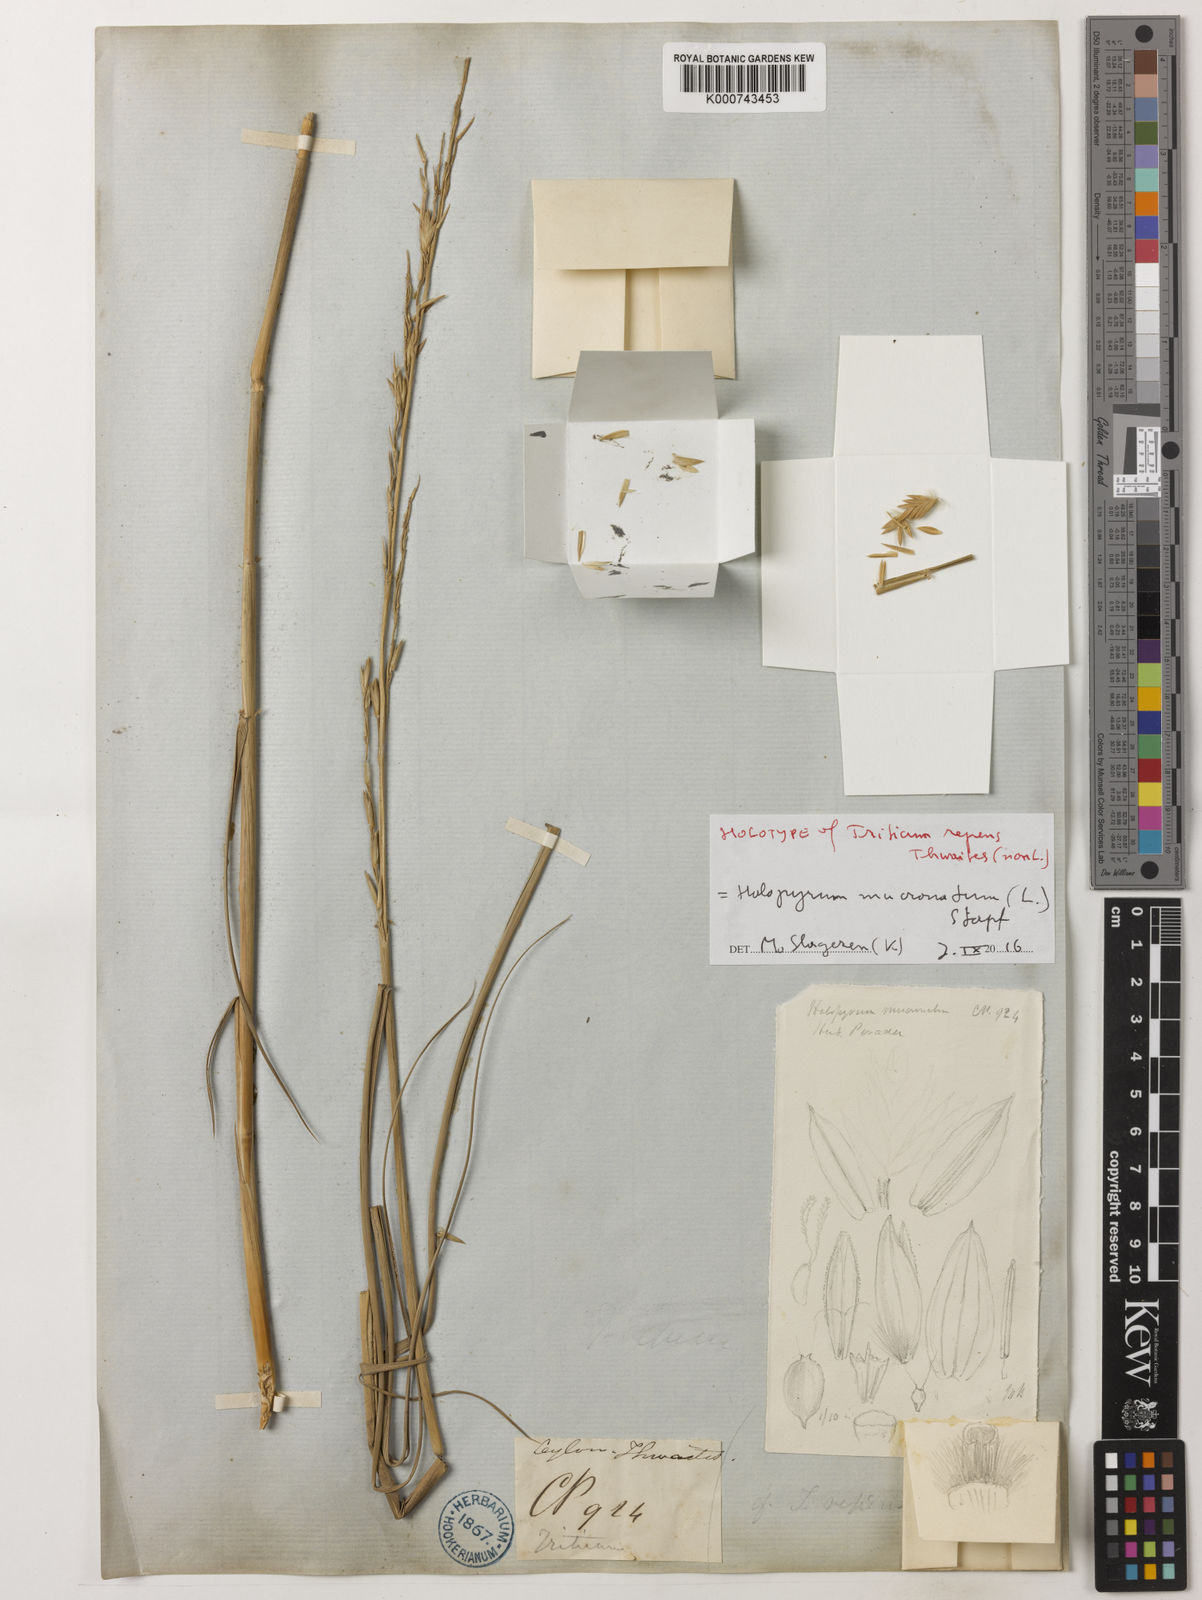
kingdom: Plantae
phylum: Tracheophyta
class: Liliopsida
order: Poales
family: Poaceae
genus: Halopyrum
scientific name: Halopyrum mucronatum
